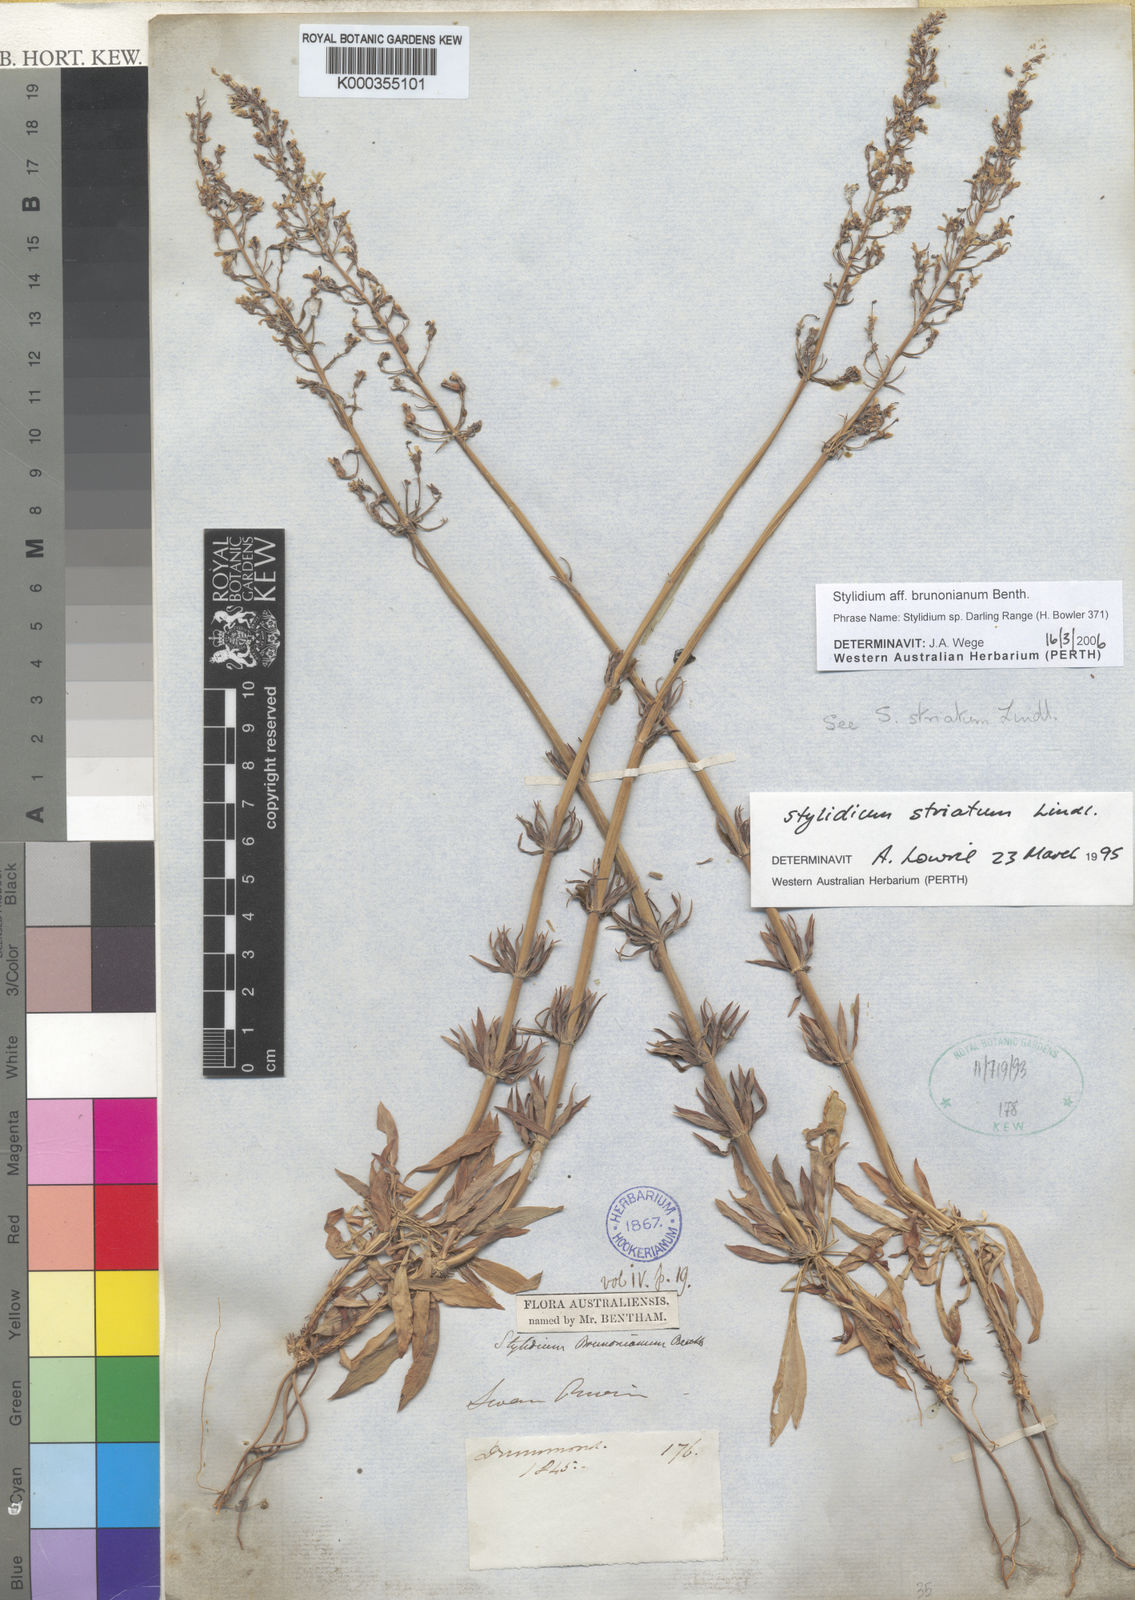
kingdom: Plantae
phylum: Tracheophyta
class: Magnoliopsida
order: Asterales
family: Stylidiaceae
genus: Stylidium
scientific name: Stylidium
